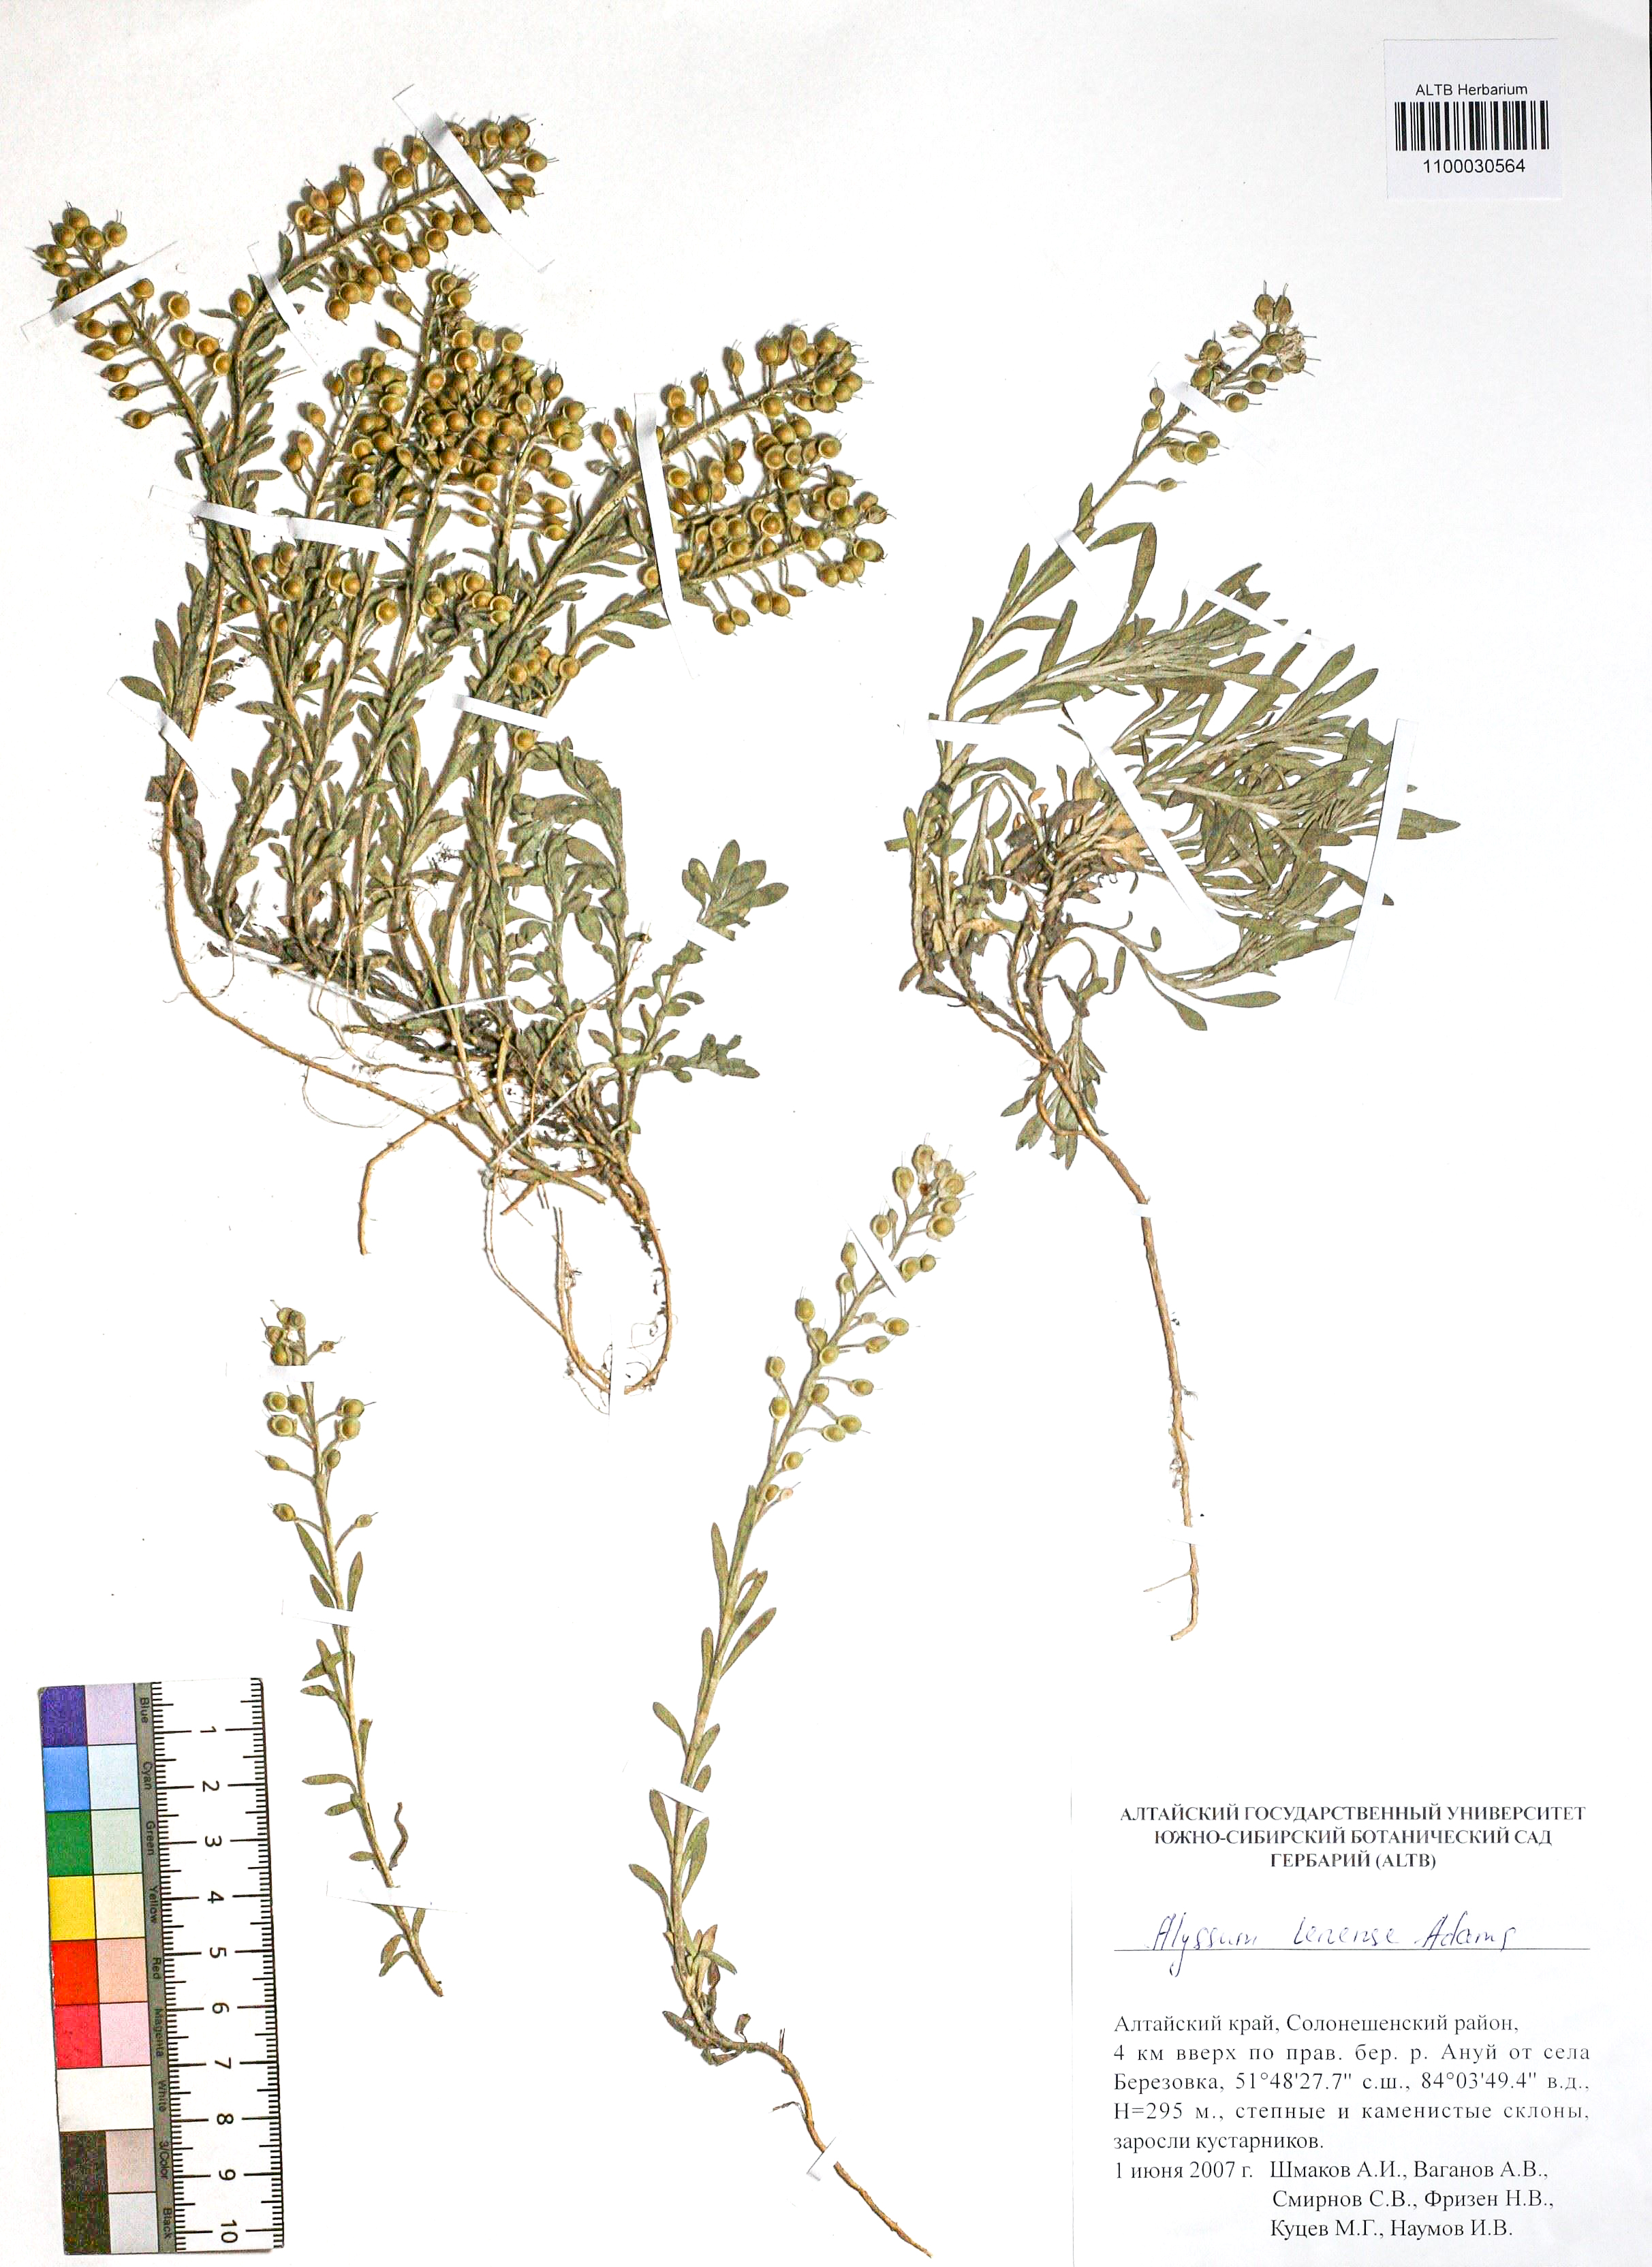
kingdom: Plantae
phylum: Tracheophyta
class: Magnoliopsida
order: Brassicales
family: Brassicaceae
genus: Alyssum
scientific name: Alyssum lenense
